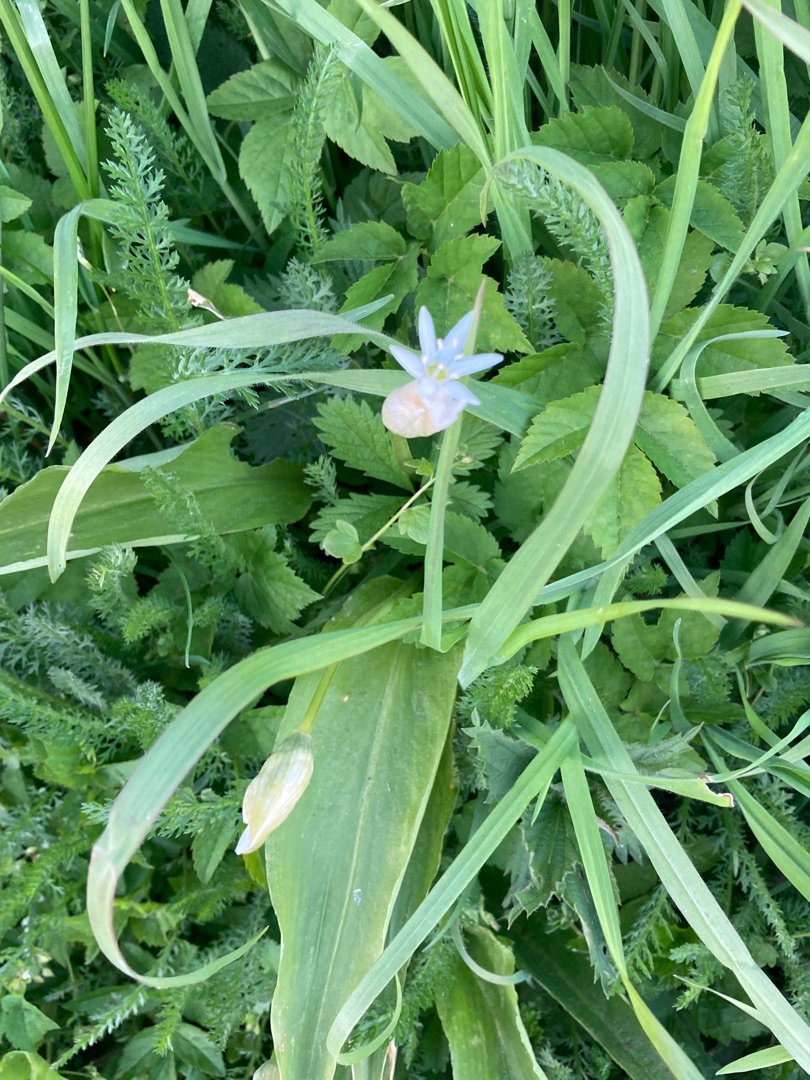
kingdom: Plantae
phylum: Tracheophyta
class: Liliopsida
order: Asparagales
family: Amaryllidaceae
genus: Allium
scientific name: Allium ursinum
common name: Rams-løg
